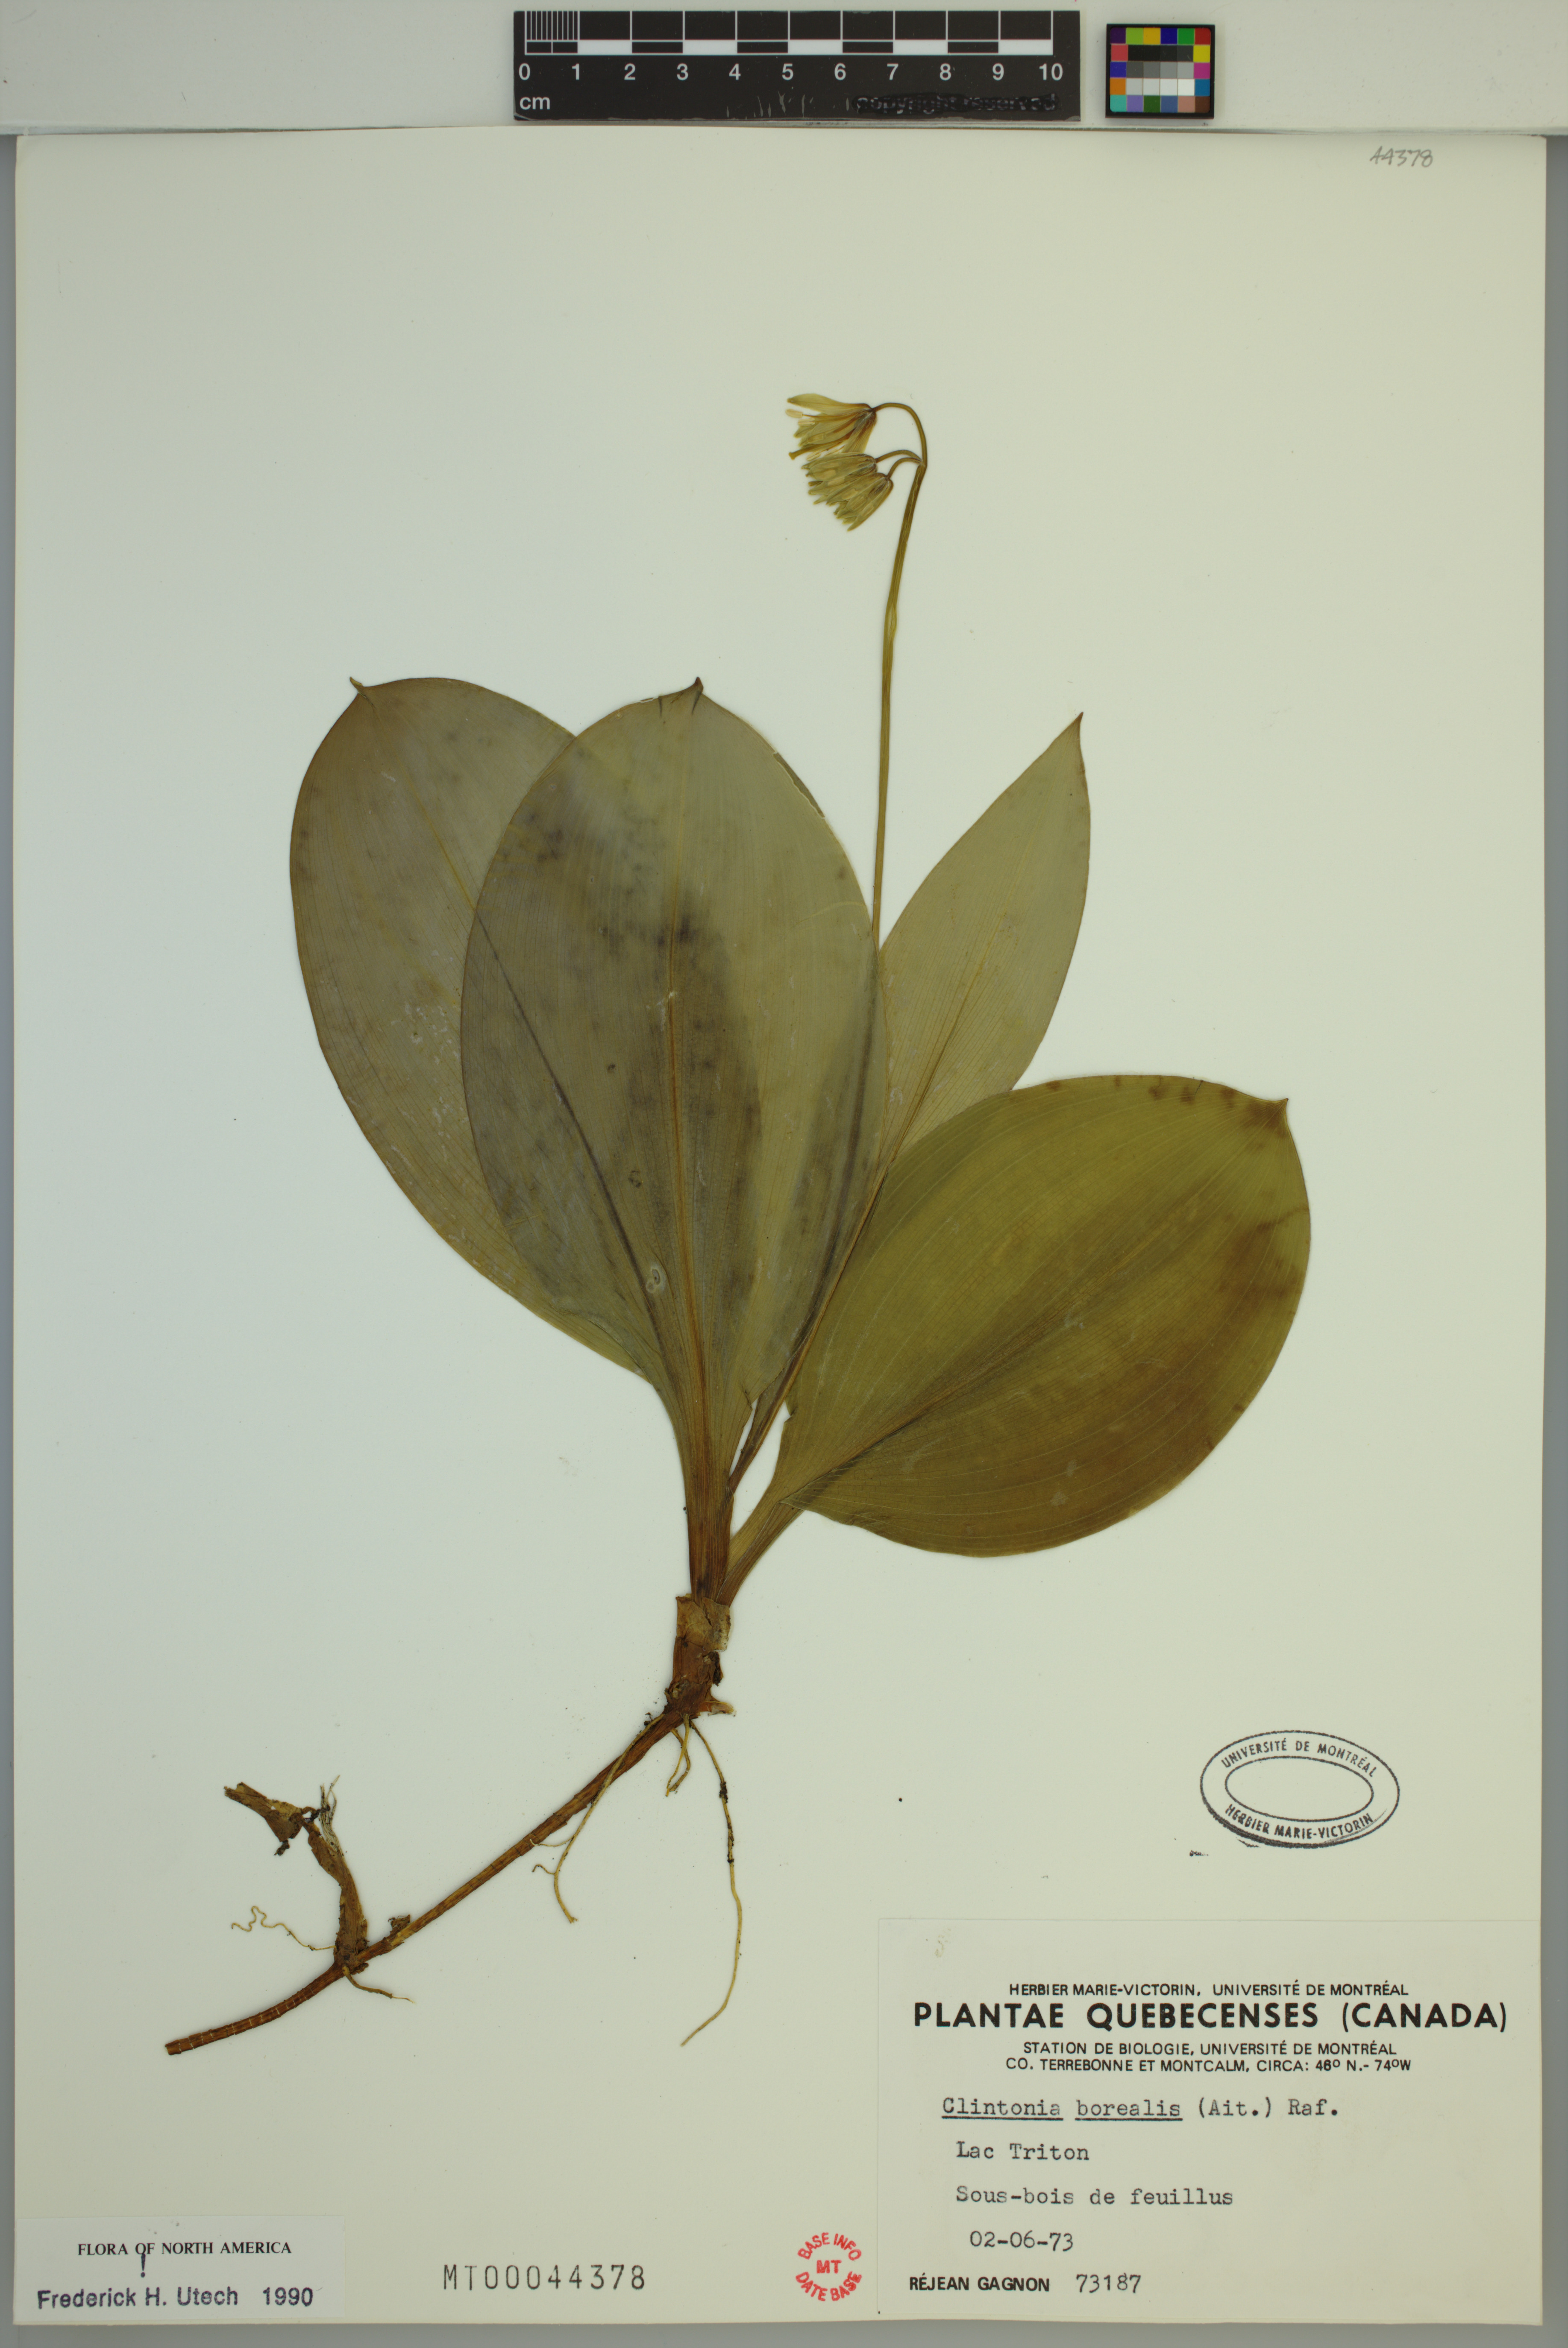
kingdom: Plantae
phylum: Tracheophyta
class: Liliopsida
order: Liliales
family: Liliaceae
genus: Clintonia
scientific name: Clintonia borealis
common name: Yellow clintonia
